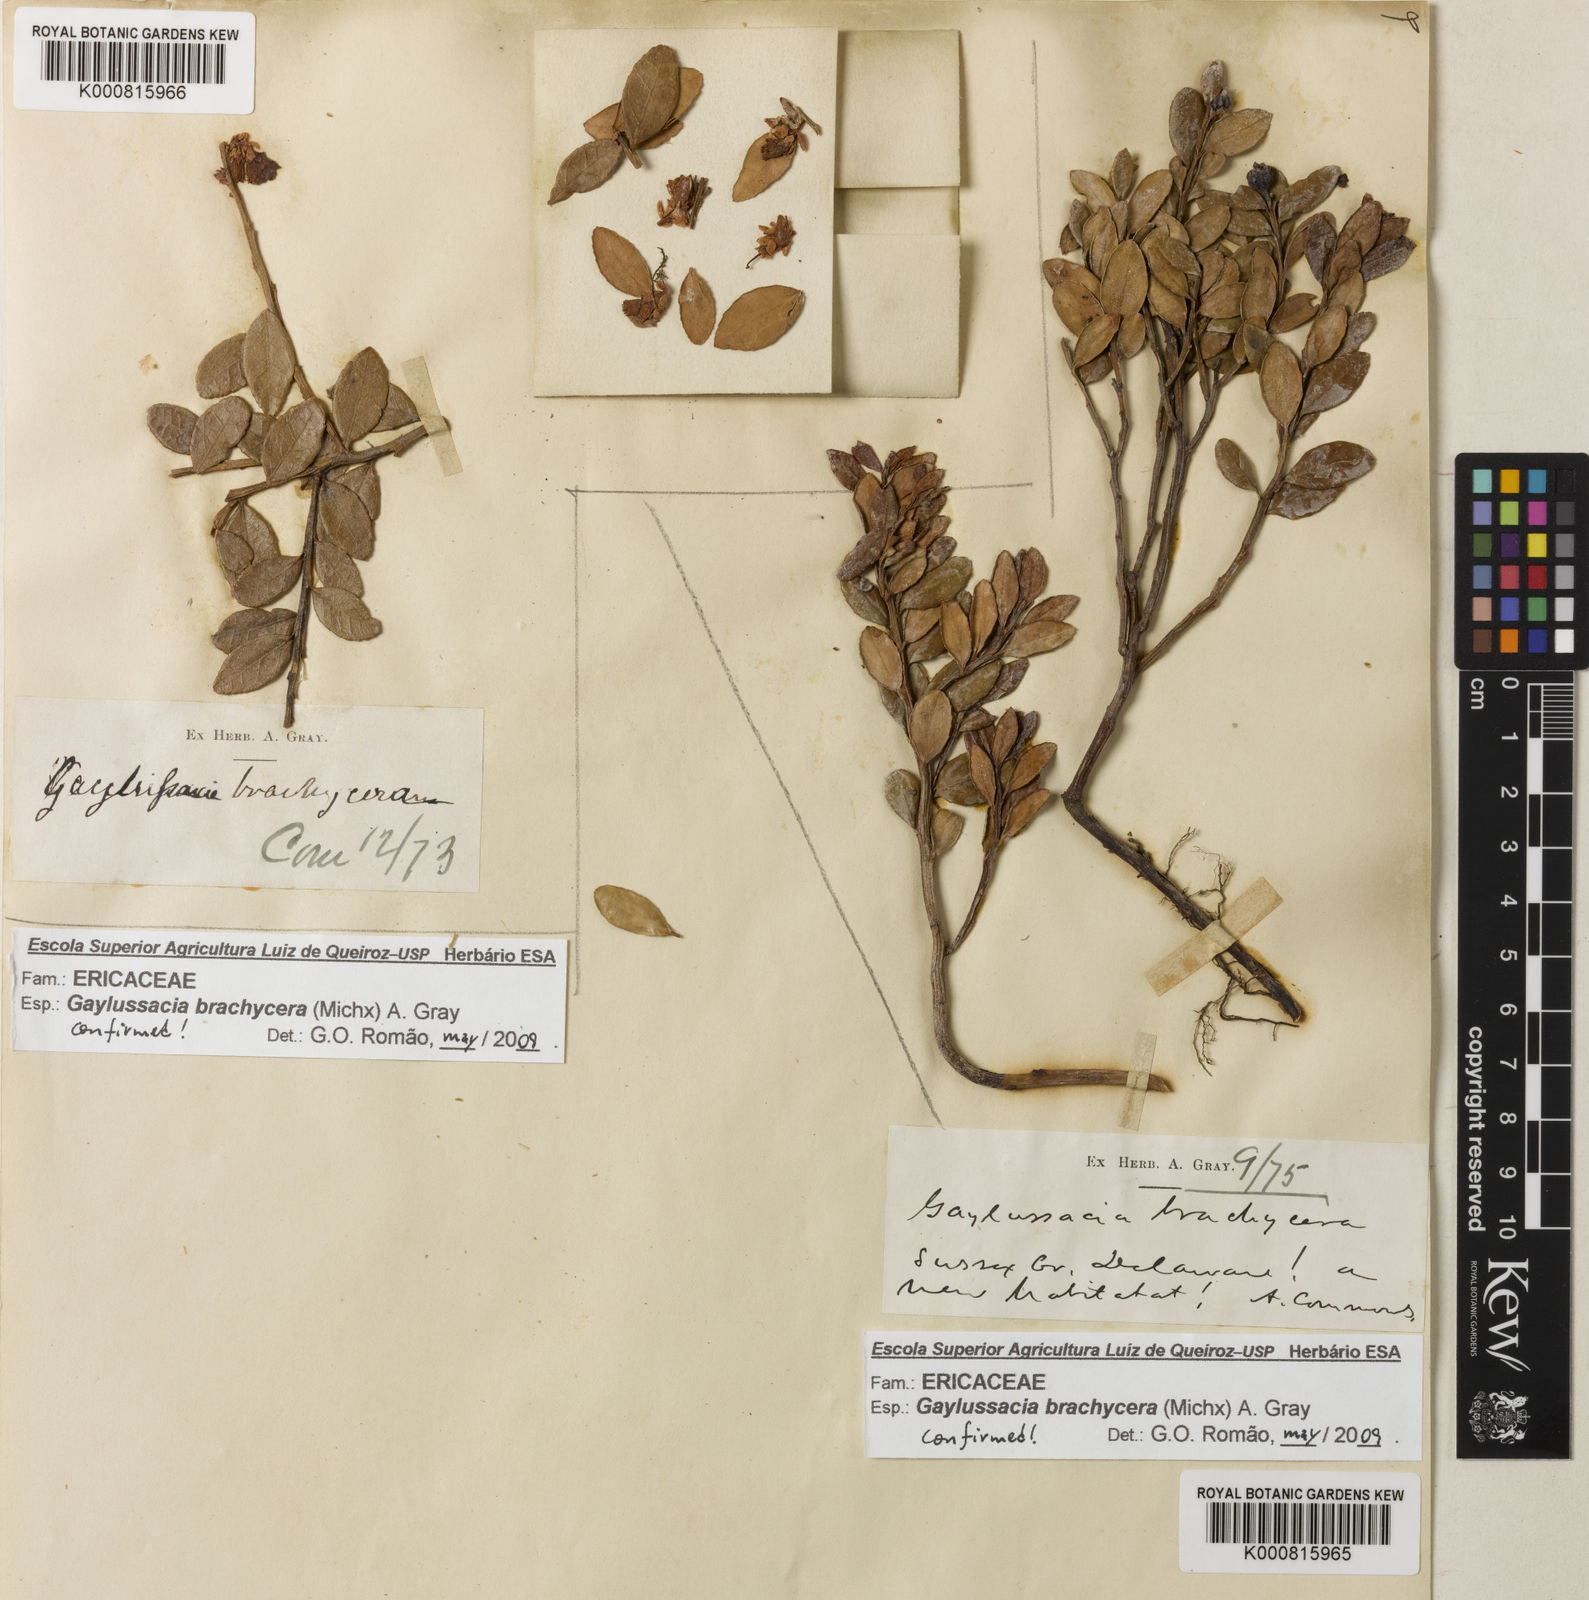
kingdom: Plantae
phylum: Tracheophyta
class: Magnoliopsida
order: Ericales
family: Ericaceae
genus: Gaylussacia
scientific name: Gaylussacia brachycera
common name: Box huckleberry
